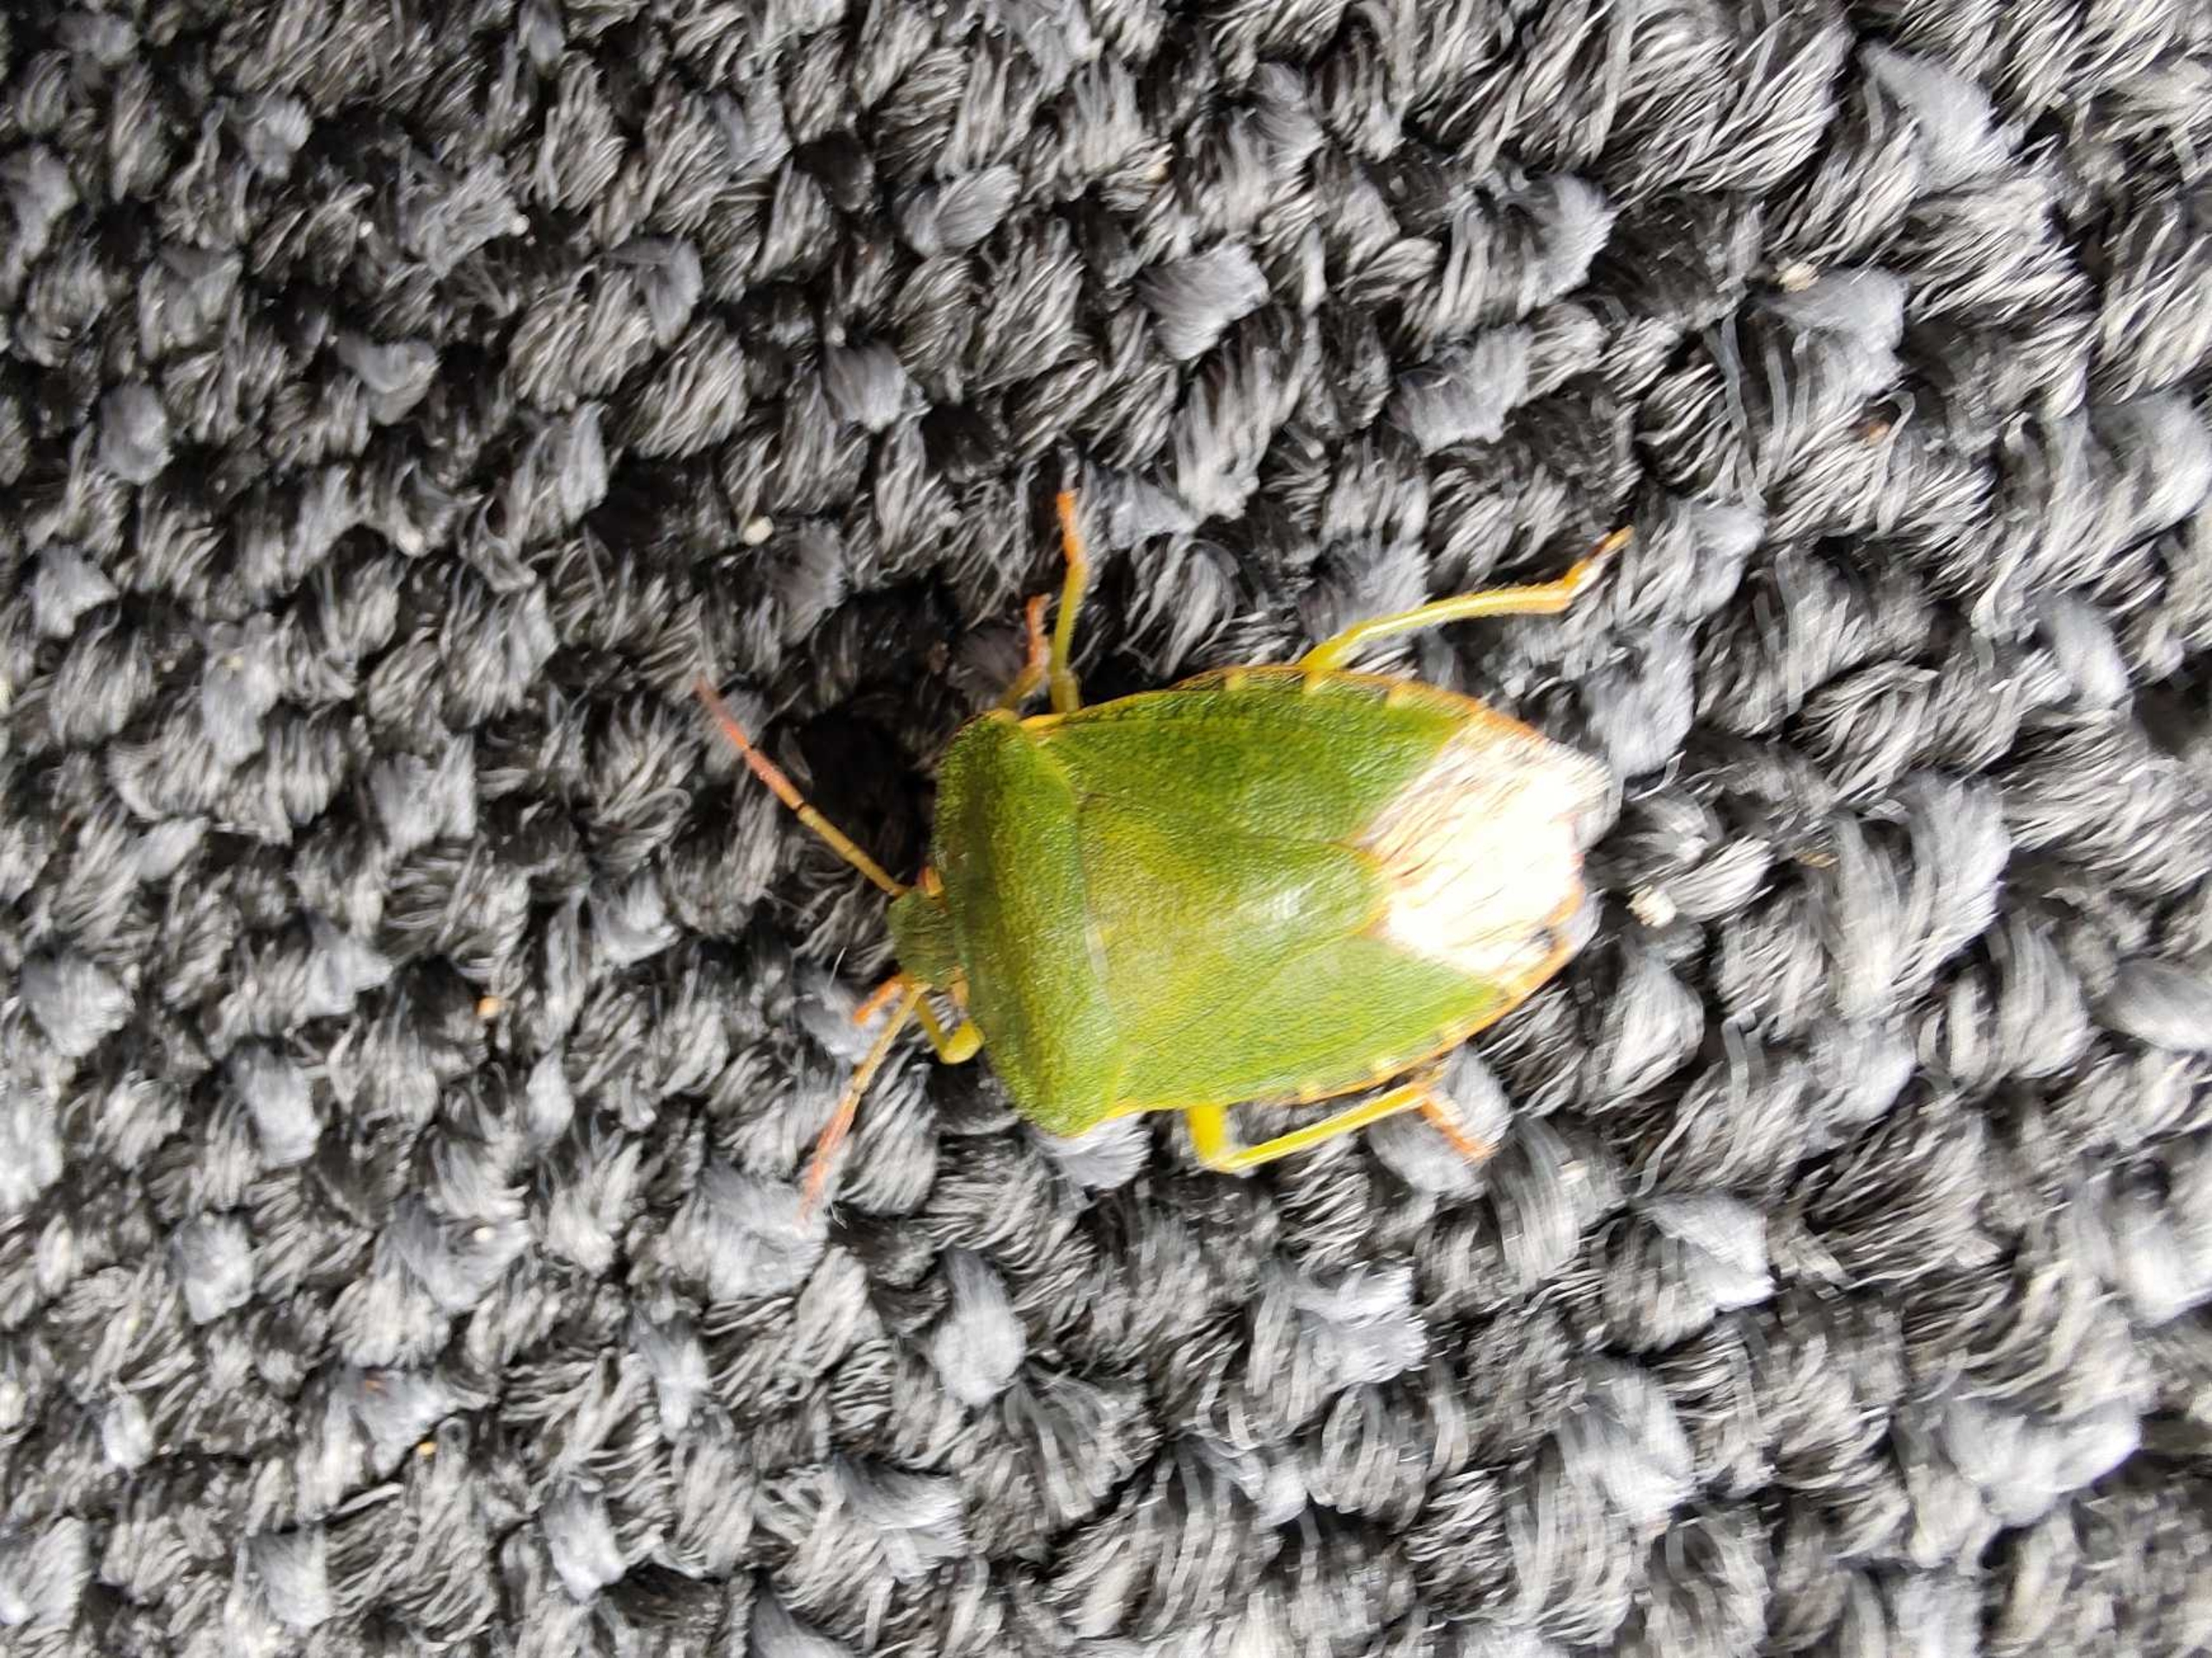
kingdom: Animalia
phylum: Arthropoda
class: Insecta
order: Hemiptera
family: Pentatomidae
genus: Palomena
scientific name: Palomena prasina
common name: Grøn bredtæge
